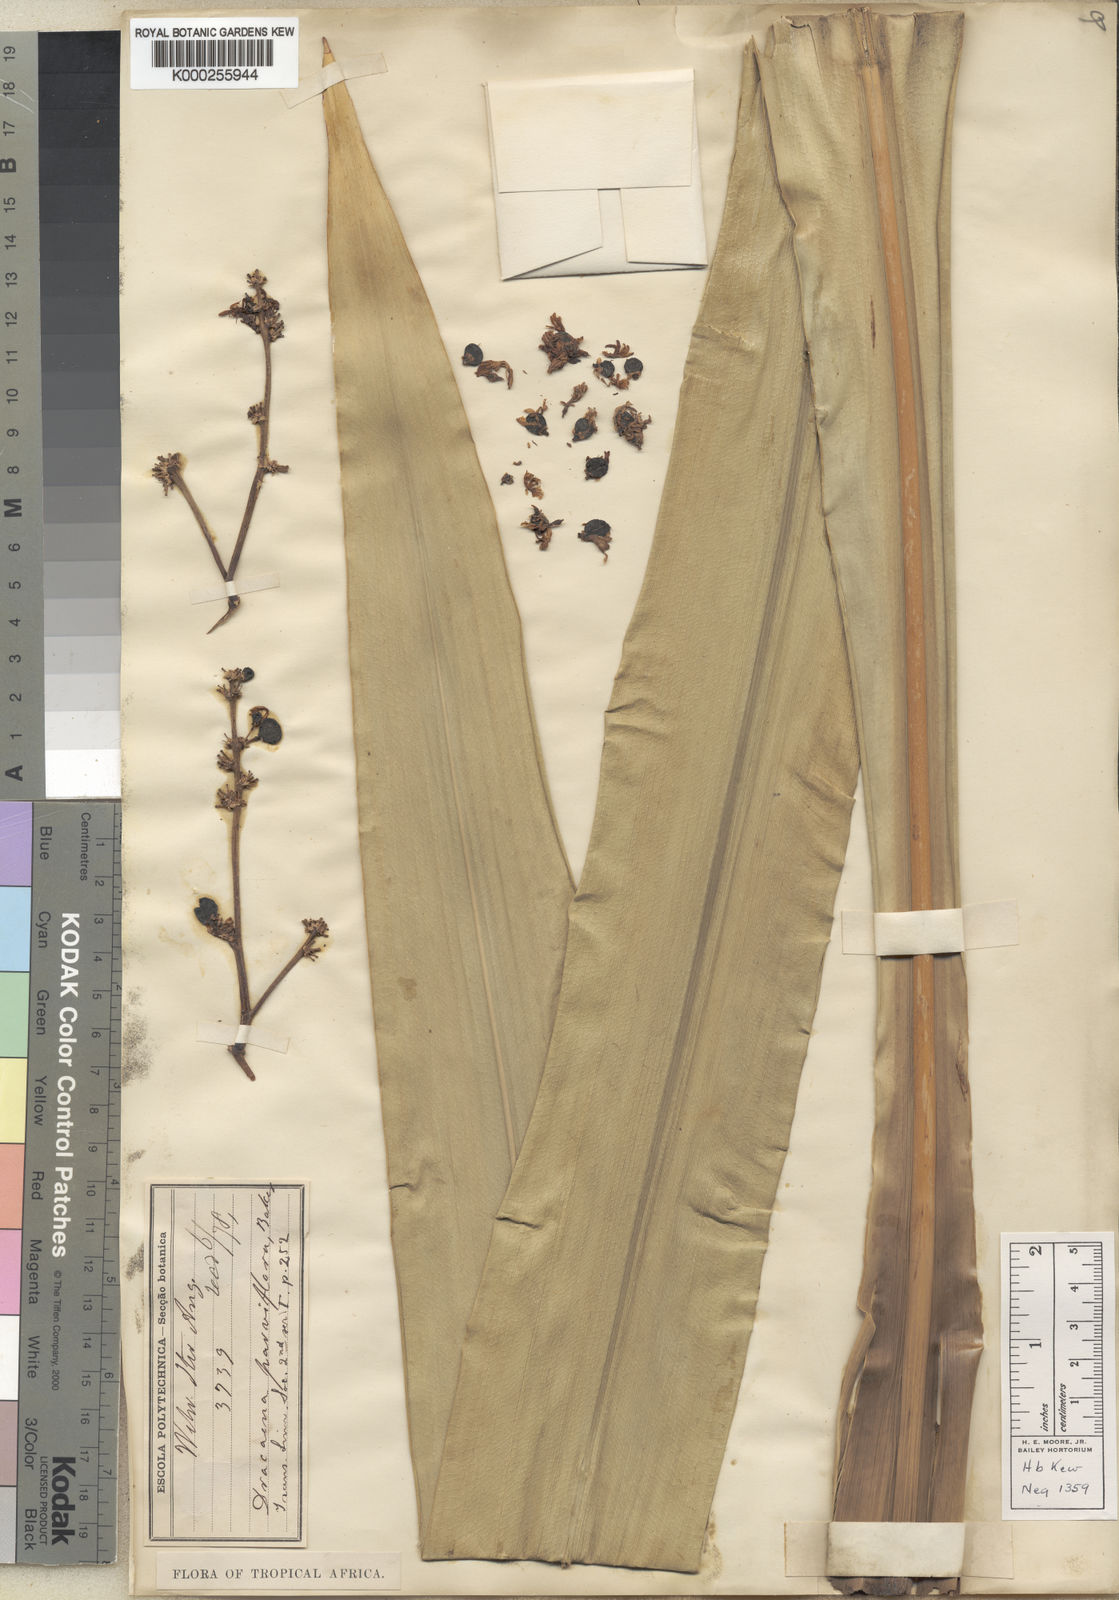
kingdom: Plantae
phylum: Tracheophyta
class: Liliopsida
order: Asparagales
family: Asparagaceae
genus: Dracaena
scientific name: Dracaena parviflora
